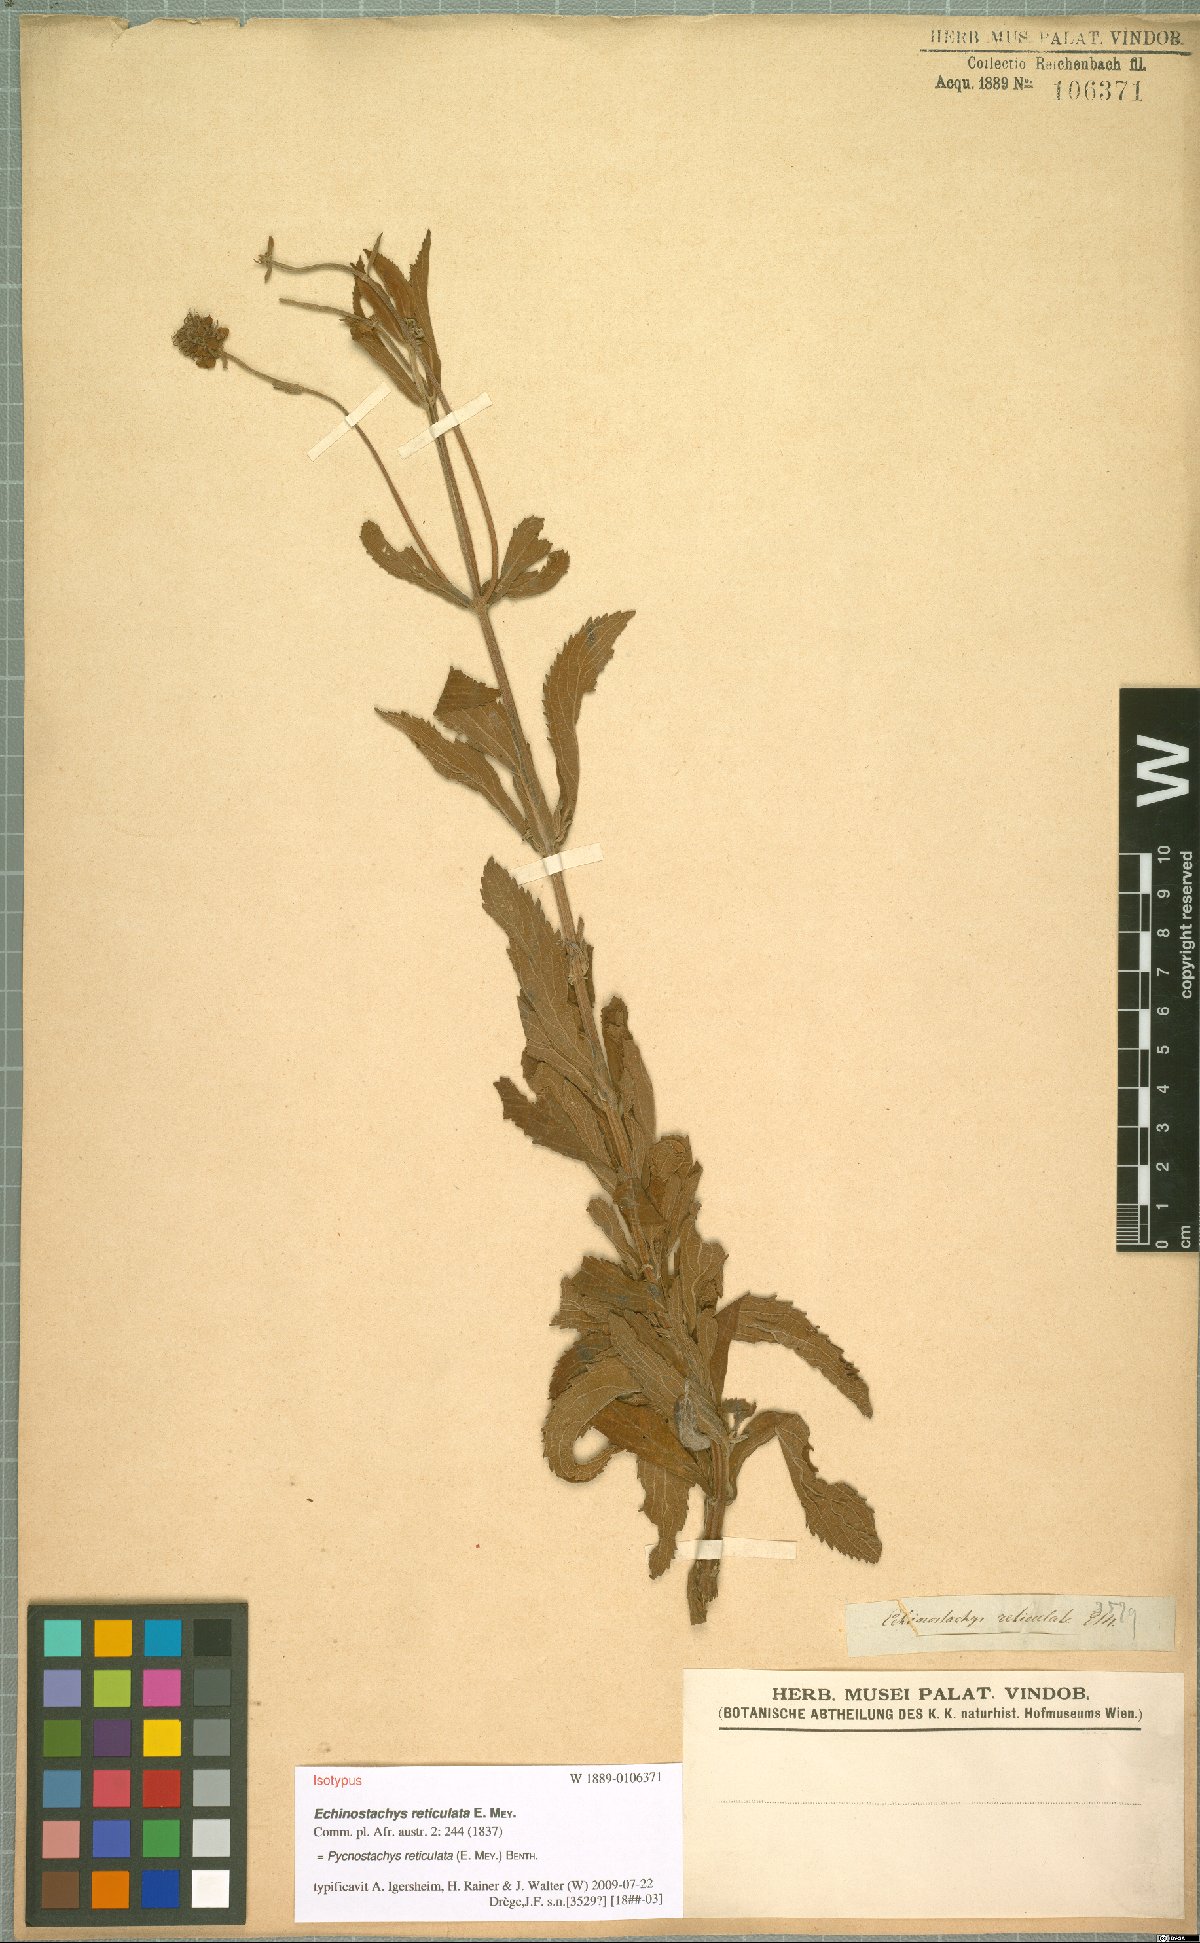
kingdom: Plantae
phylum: Tracheophyta
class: Magnoliopsida
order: Lamiales
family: Lamiaceae
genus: Coleus
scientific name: Coleus kirkii
